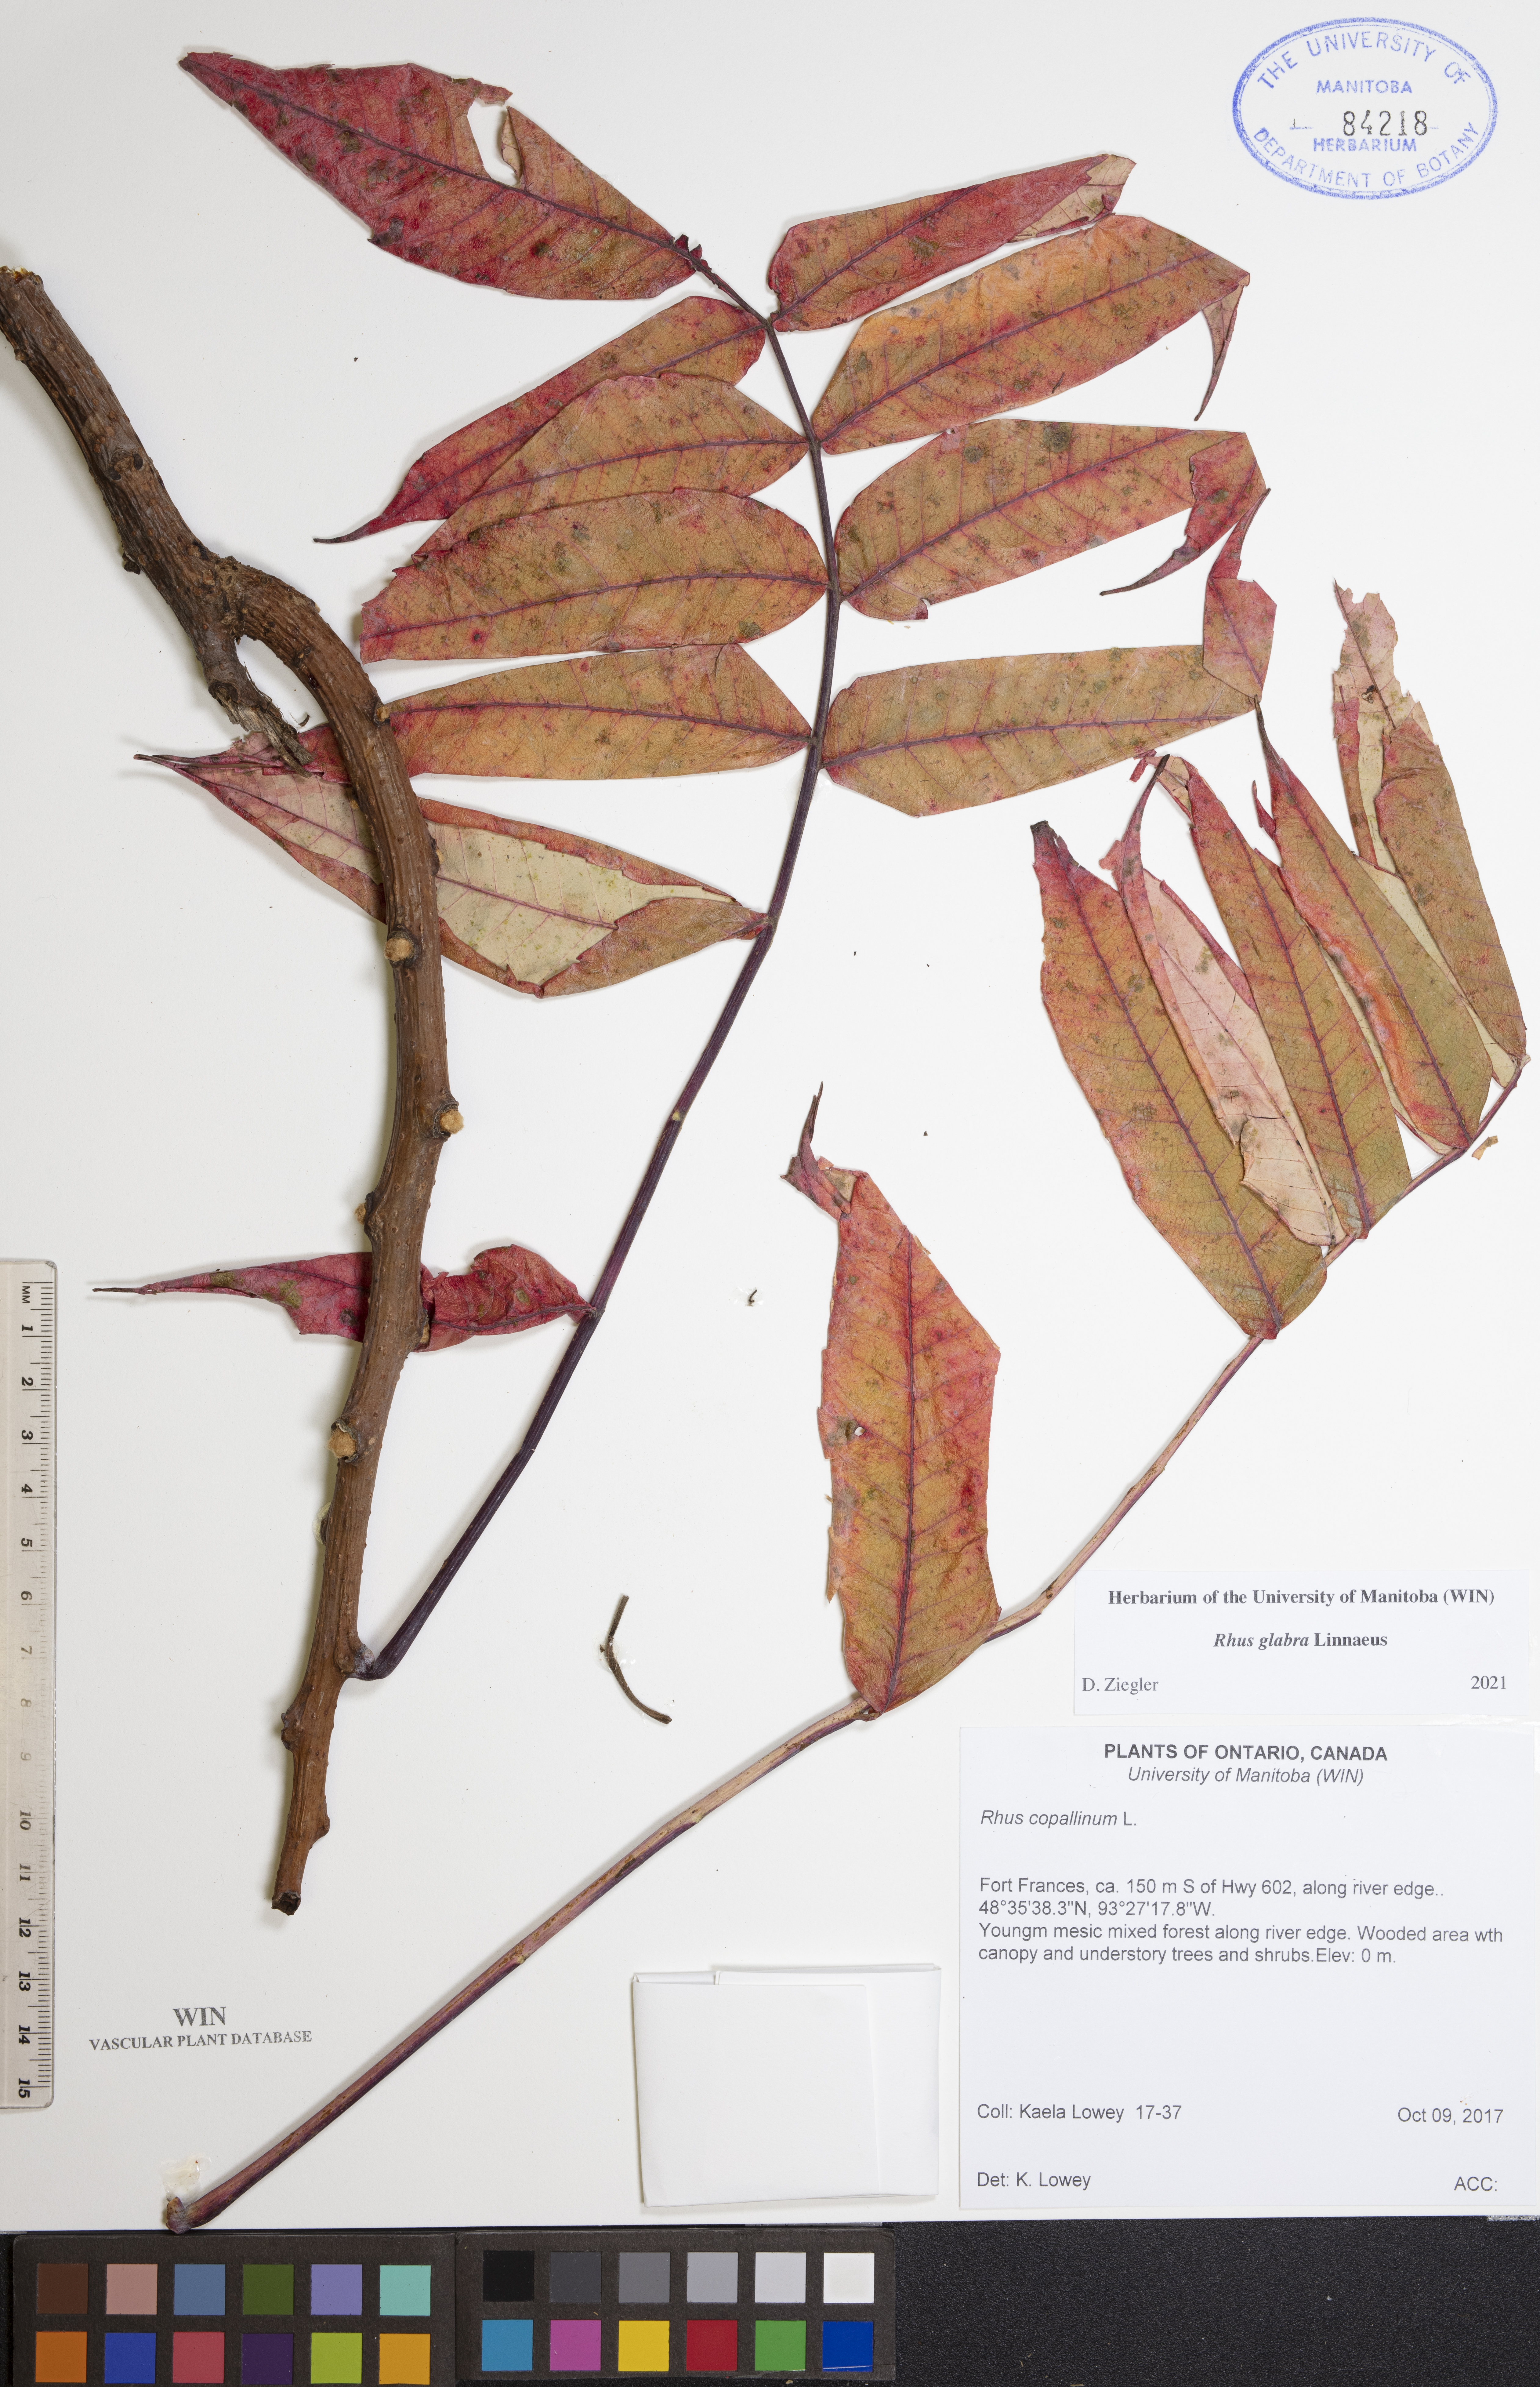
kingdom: Plantae
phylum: Tracheophyta
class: Magnoliopsida
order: Sapindales
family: Anacardiaceae
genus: Rhus
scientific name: Rhus glabra
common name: Scarlet sumac
